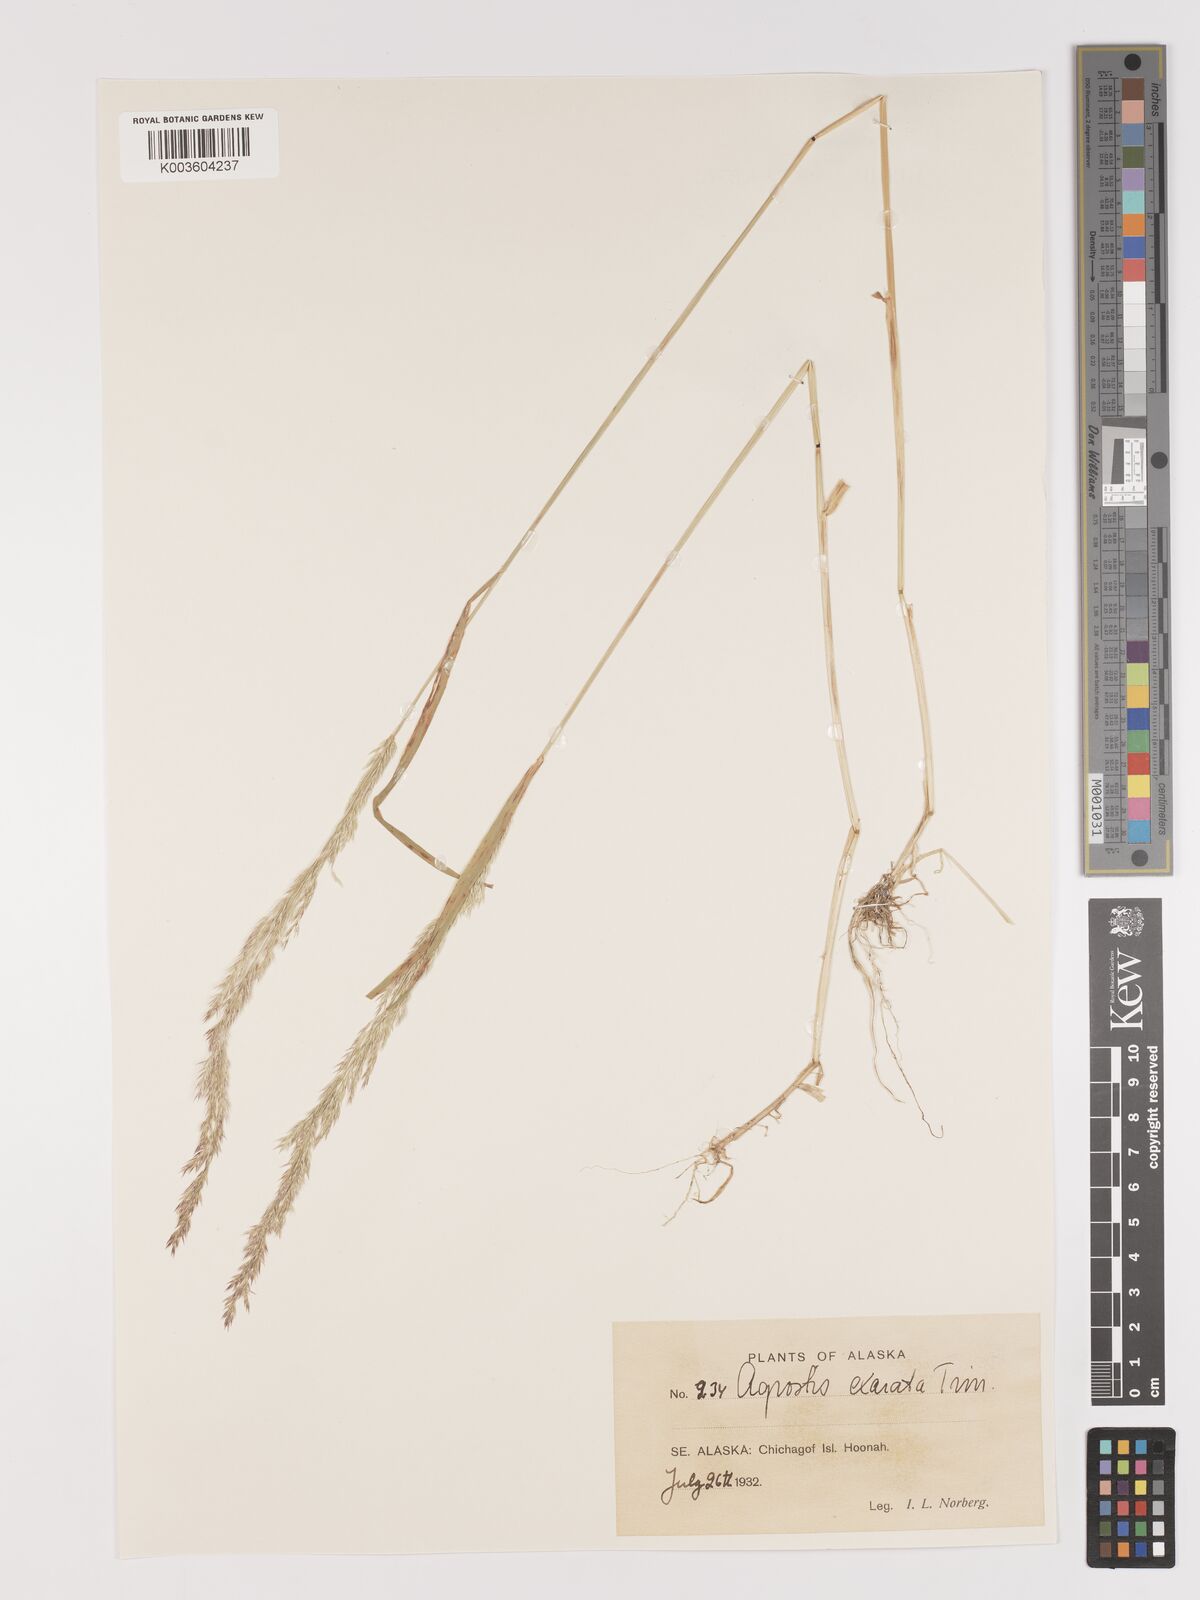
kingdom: Plantae
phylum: Tracheophyta
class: Liliopsida
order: Poales
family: Poaceae
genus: Agrostis
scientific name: Agrostis exarata
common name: Spike bent
